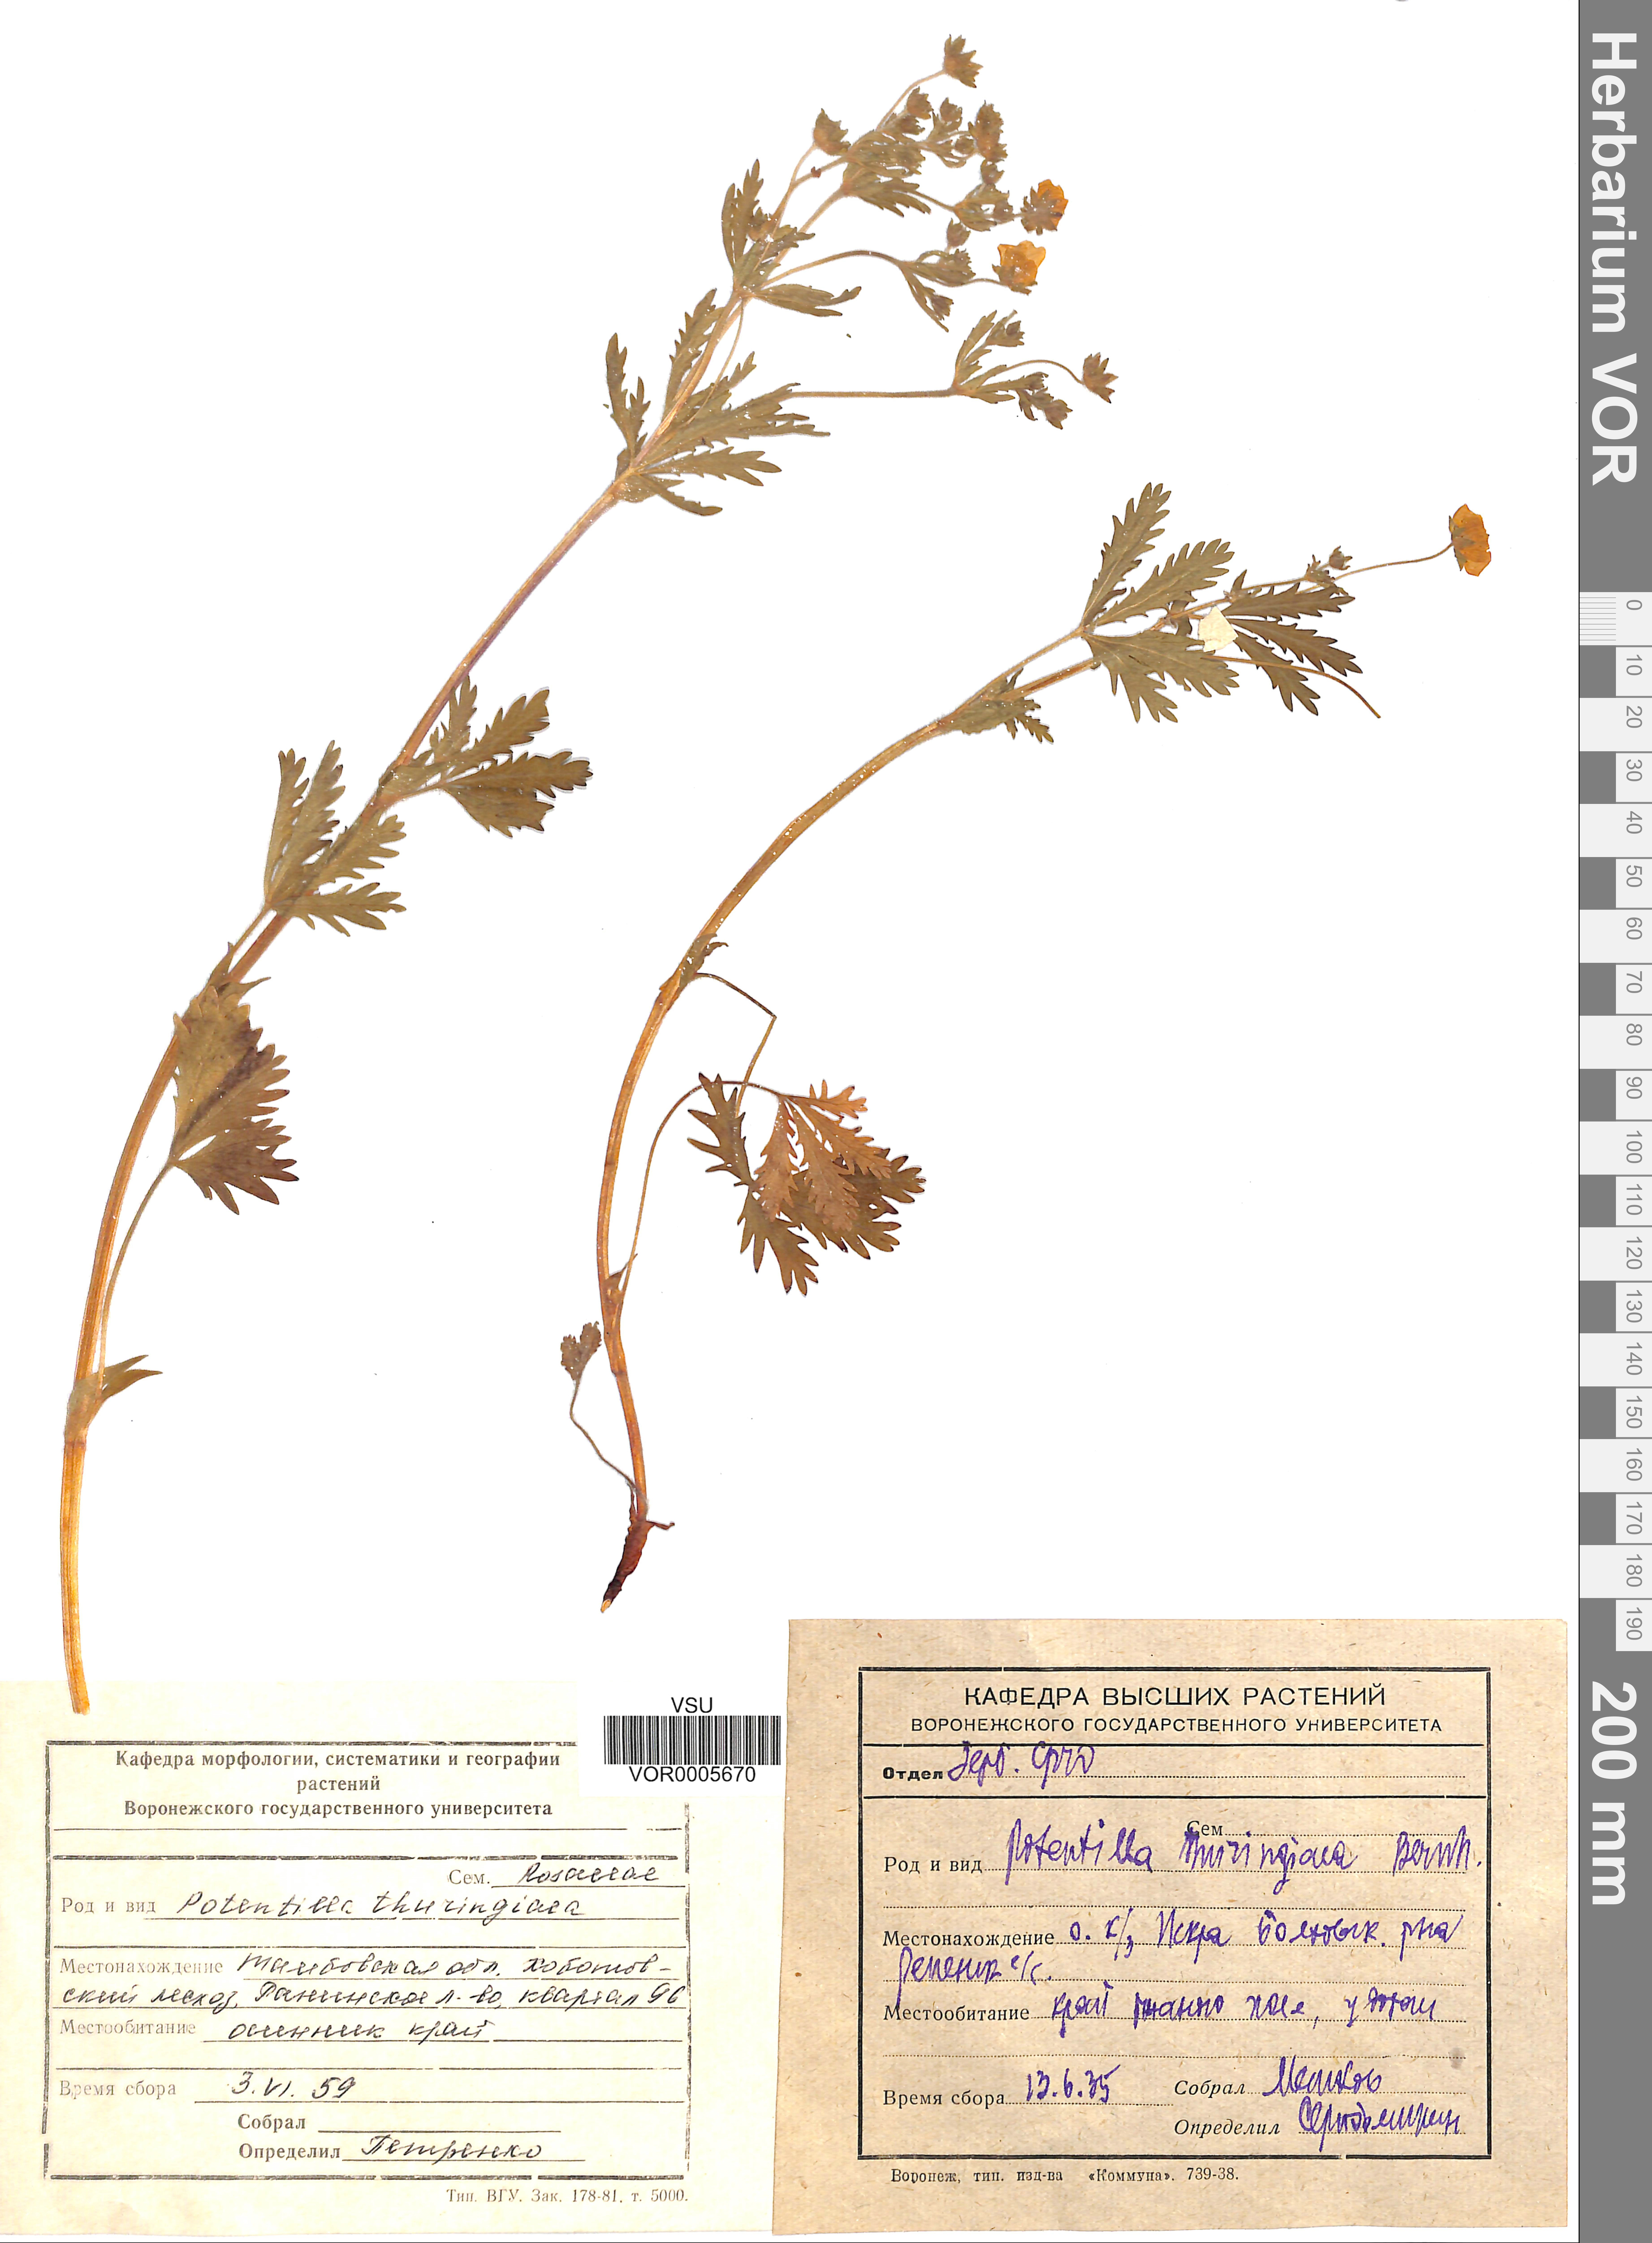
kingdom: Plantae
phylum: Tracheophyta
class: Magnoliopsida
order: Rosales
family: Rosaceae
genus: Potentilla
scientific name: Potentilla thuringiaca
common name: European cinquefoil
